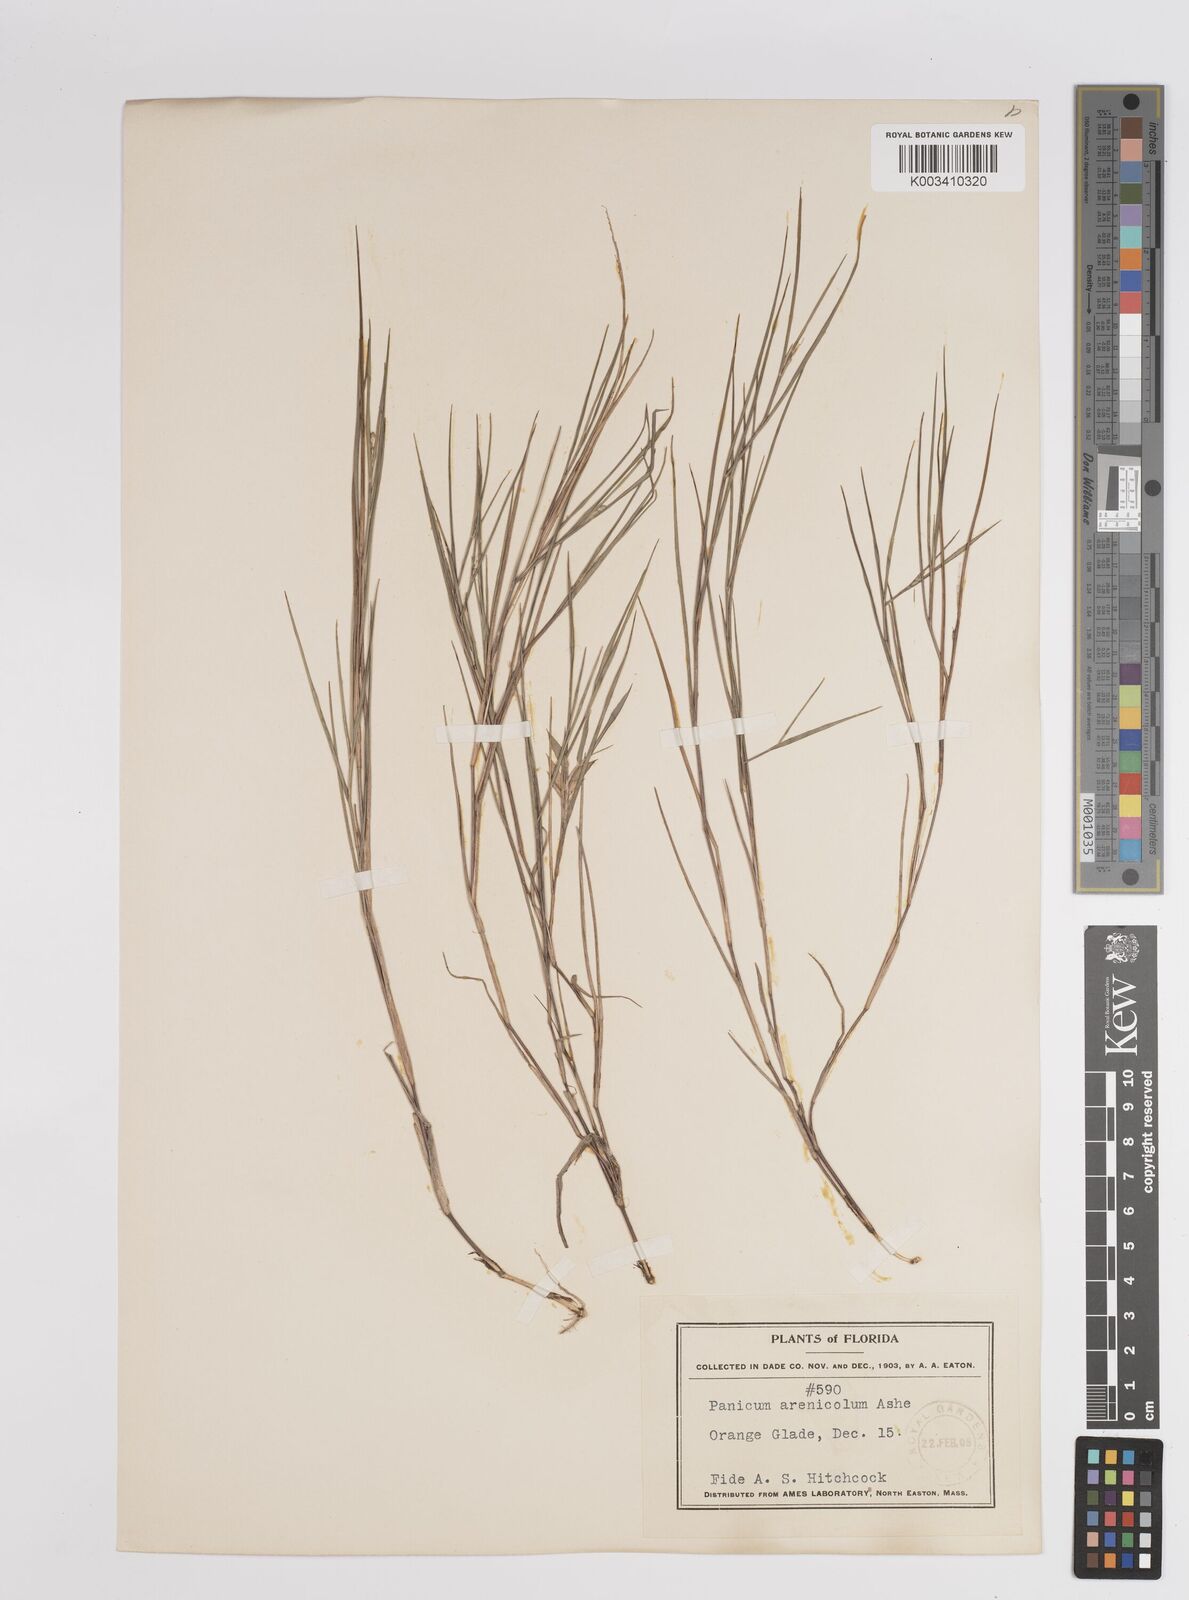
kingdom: Plantae
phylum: Tracheophyta
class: Liliopsida
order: Poales
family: Poaceae
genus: Dichanthelium
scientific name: Dichanthelium aciculare
